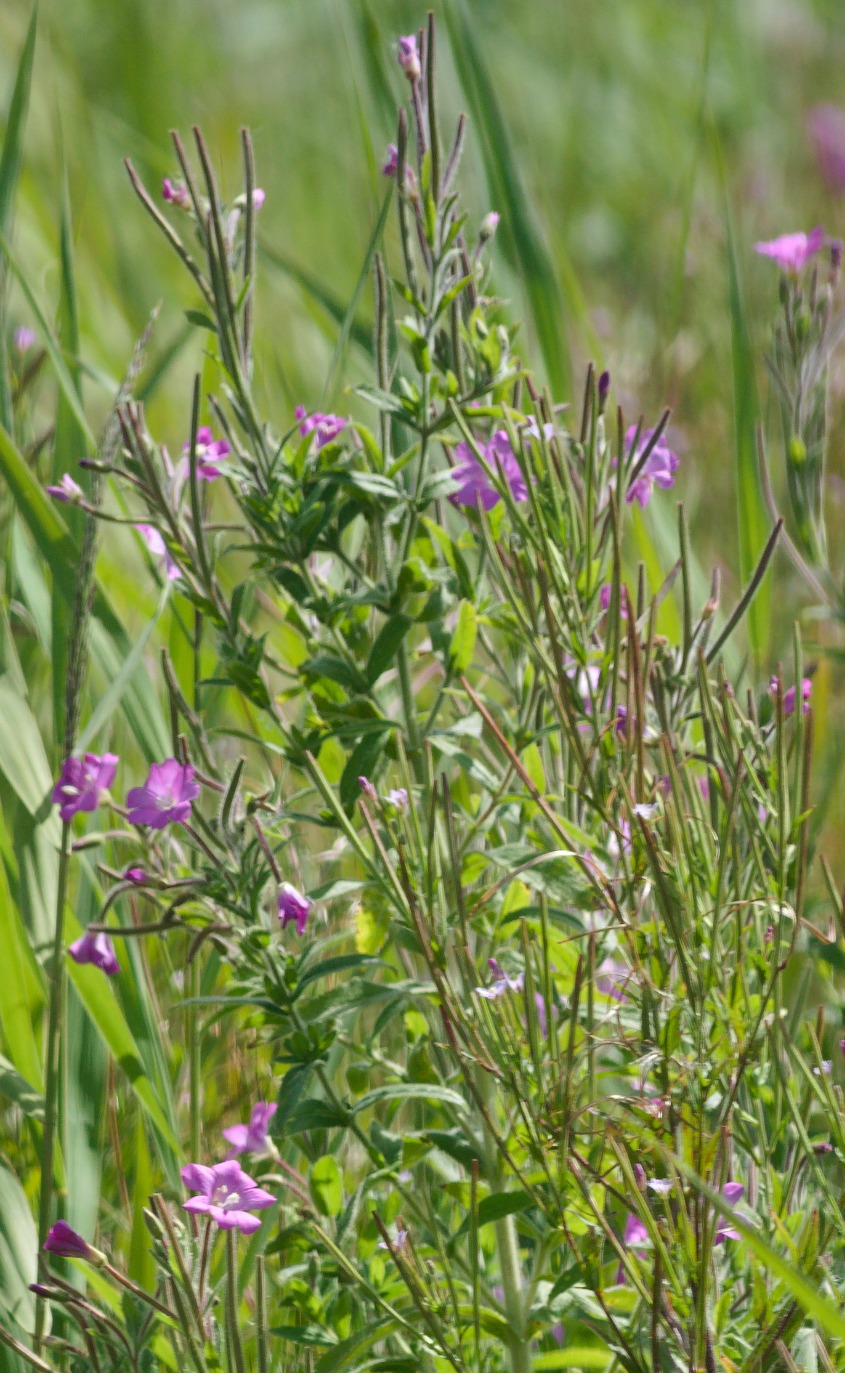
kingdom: Plantae
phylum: Tracheophyta
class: Magnoliopsida
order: Myrtales
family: Onagraceae
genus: Epilobium
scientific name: Epilobium hirsutum
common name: Lådden dueurt
